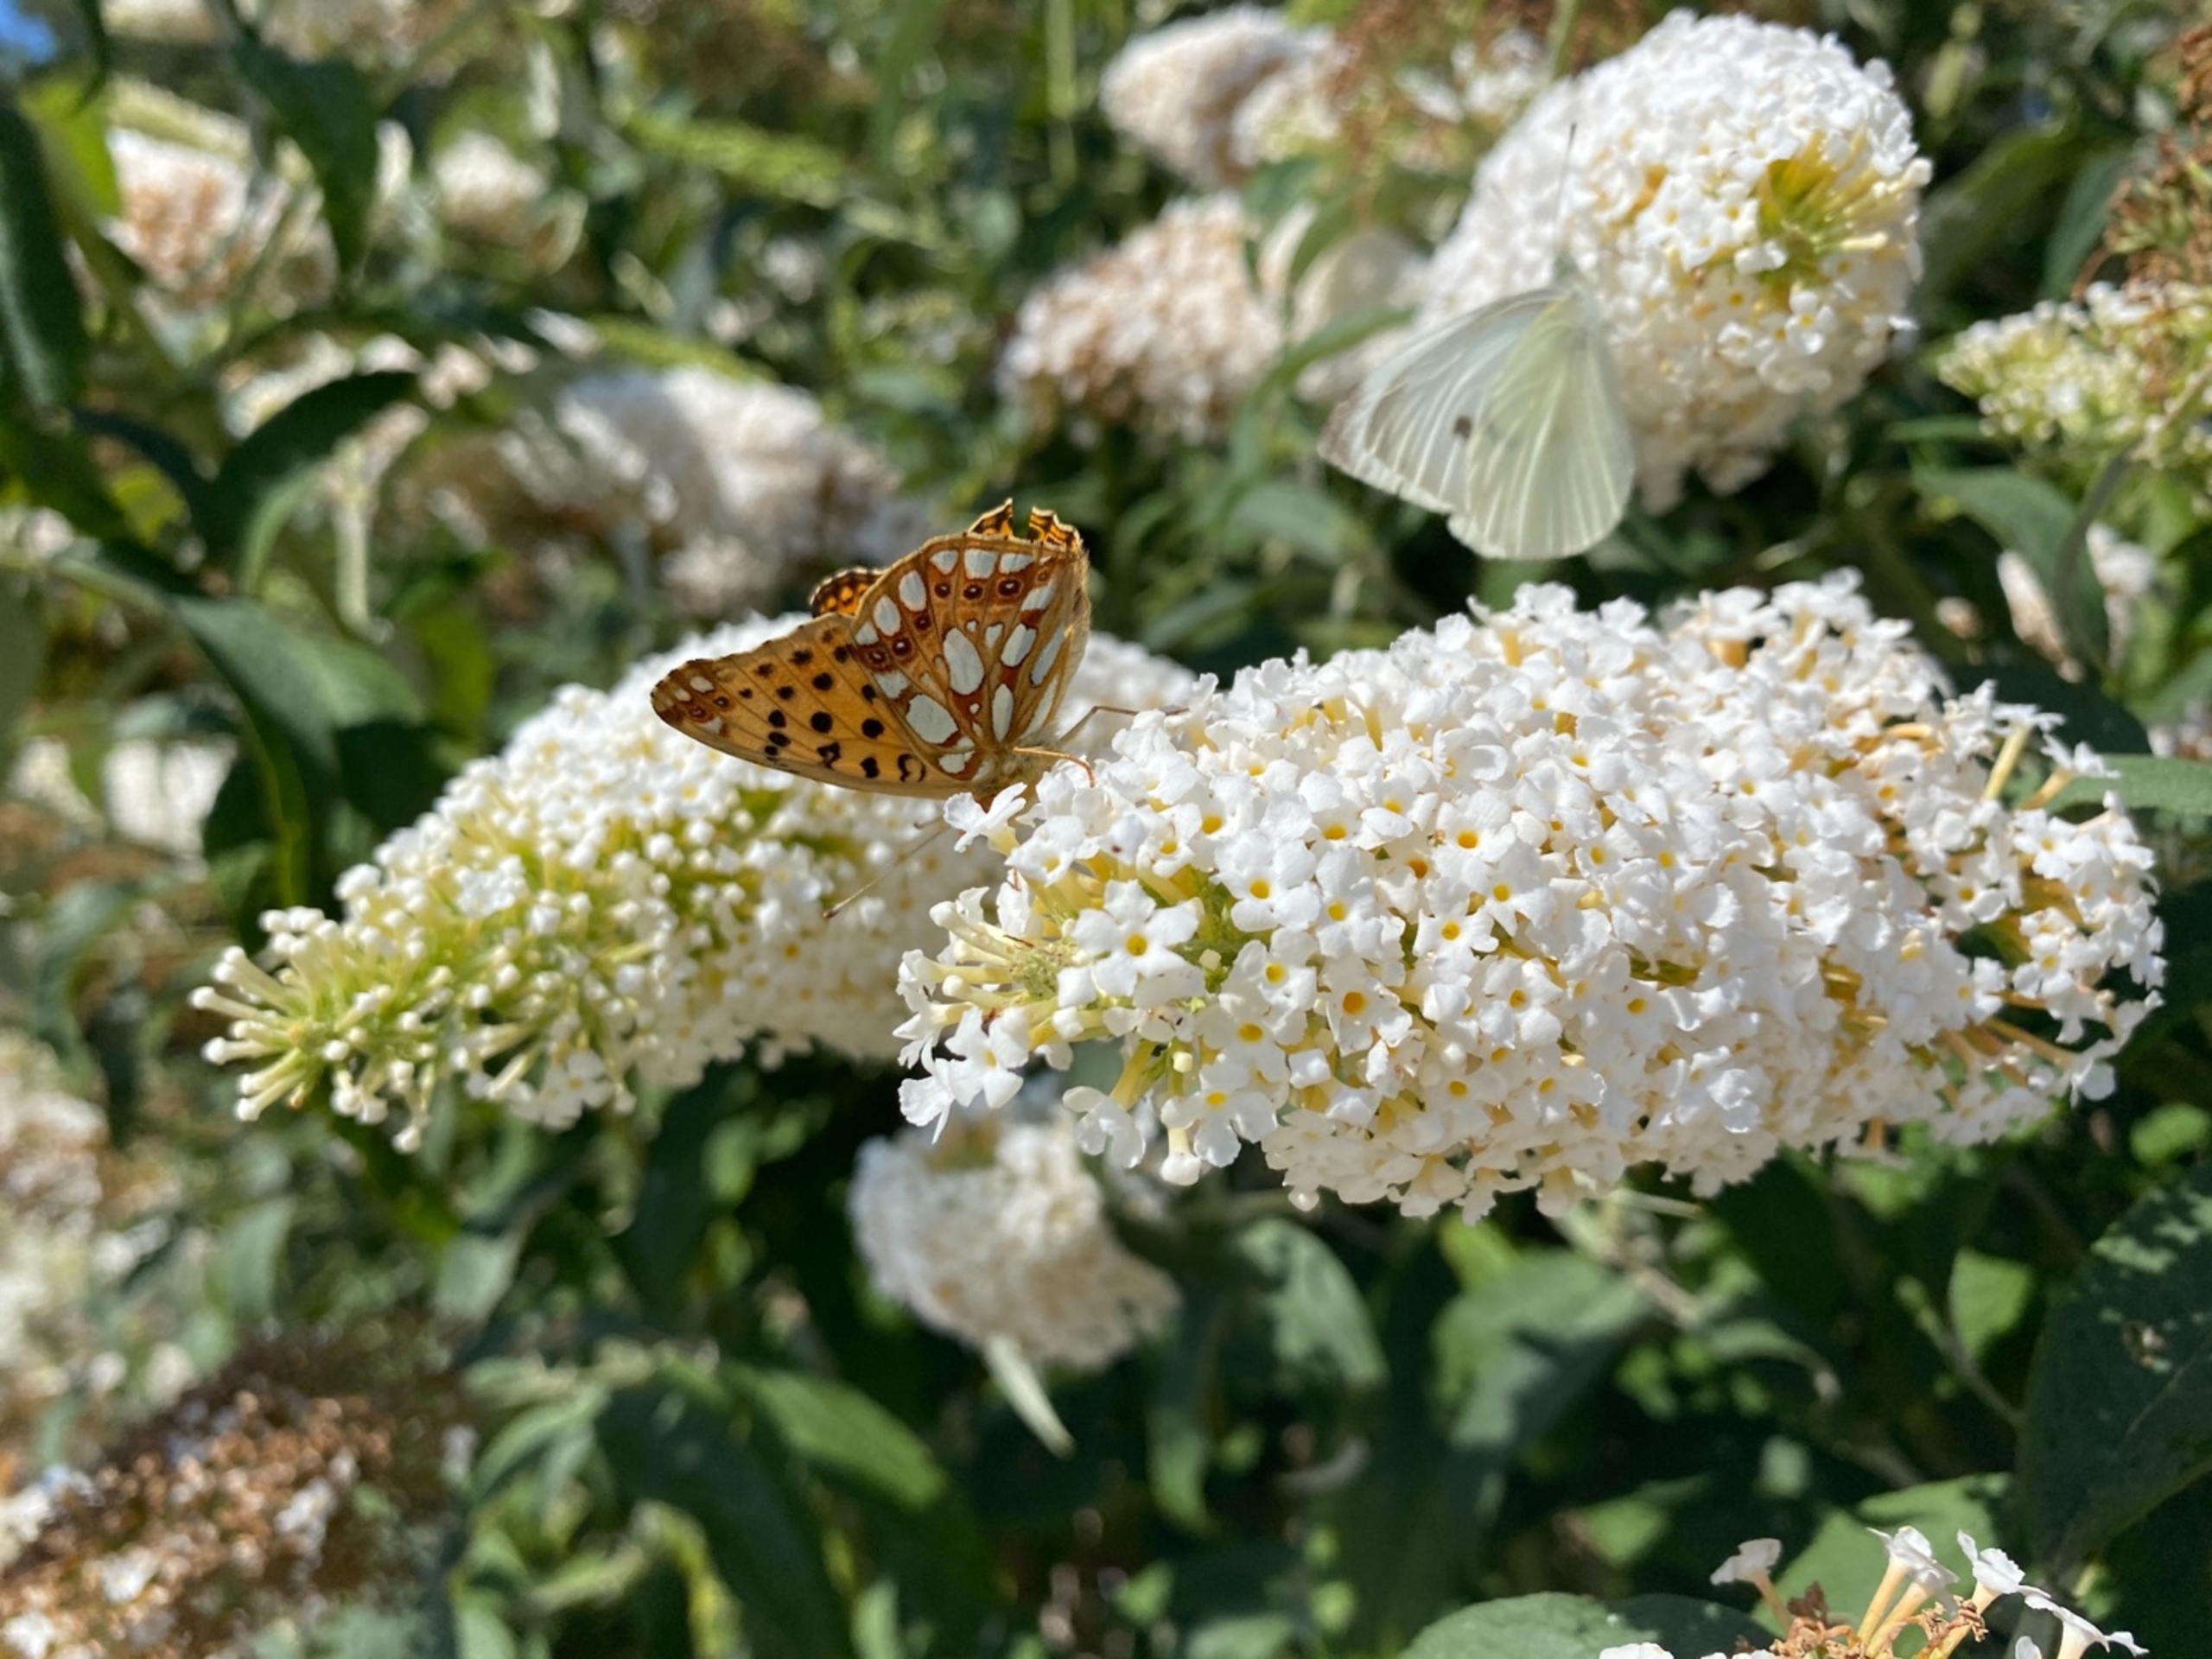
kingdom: Animalia
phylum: Arthropoda
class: Insecta
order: Lepidoptera
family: Nymphalidae
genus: Issoria
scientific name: Issoria lathonia
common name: Storplettet perlemorsommerfugl
